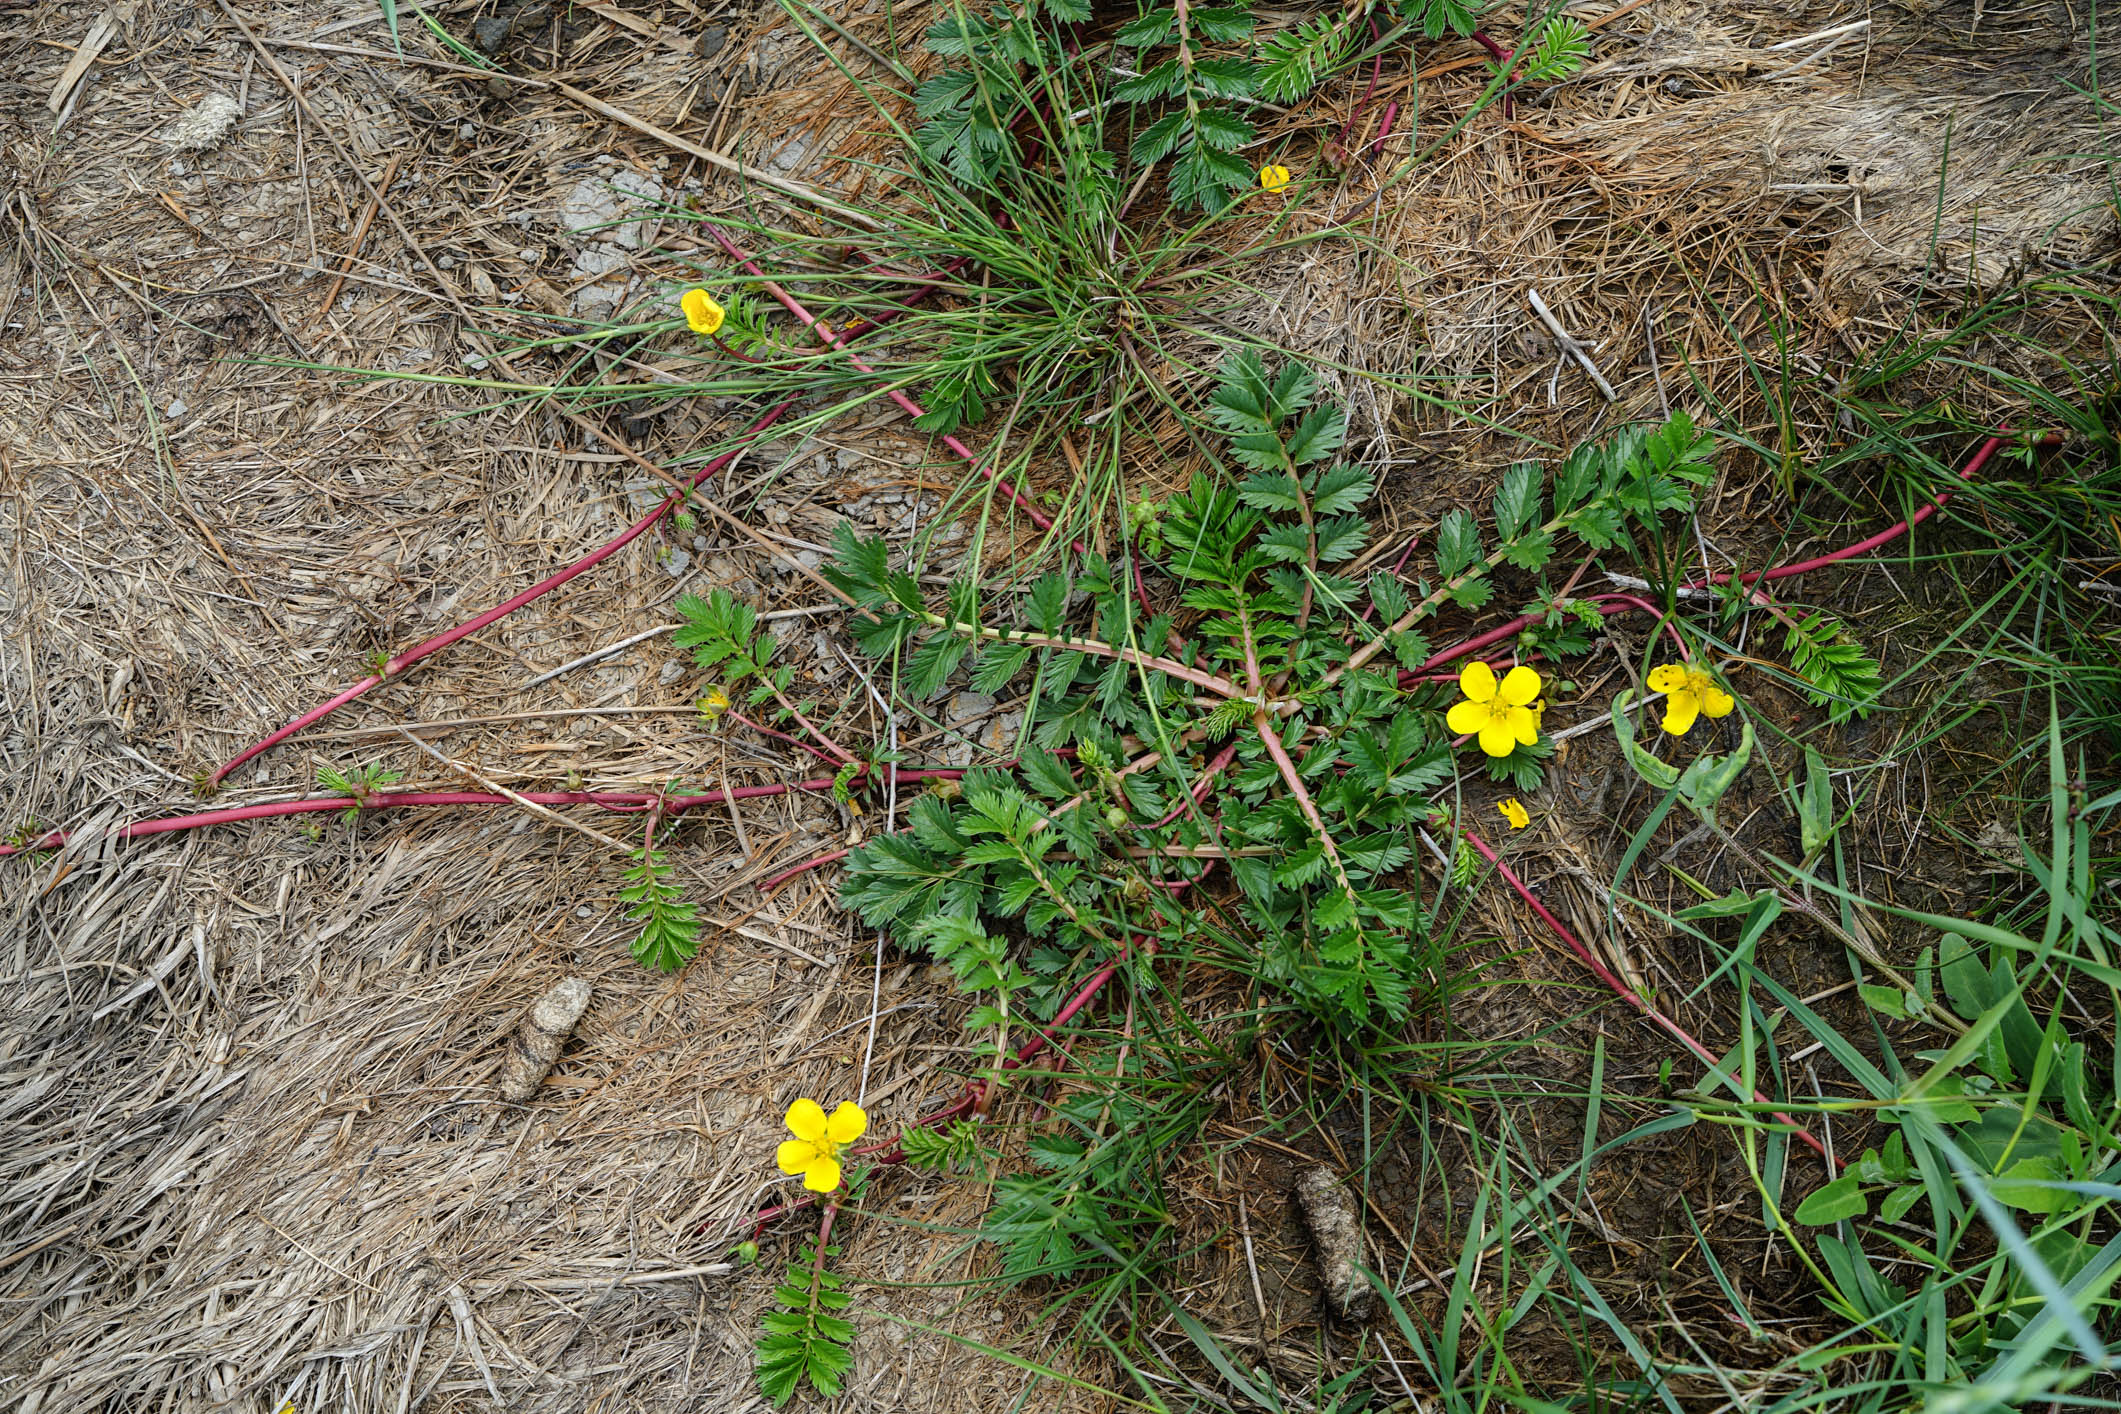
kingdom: Plantae
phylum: Tracheophyta
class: Magnoliopsida
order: Rosales
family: Rosaceae
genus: Argentina
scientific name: Argentina anserina
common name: Common silverweed
